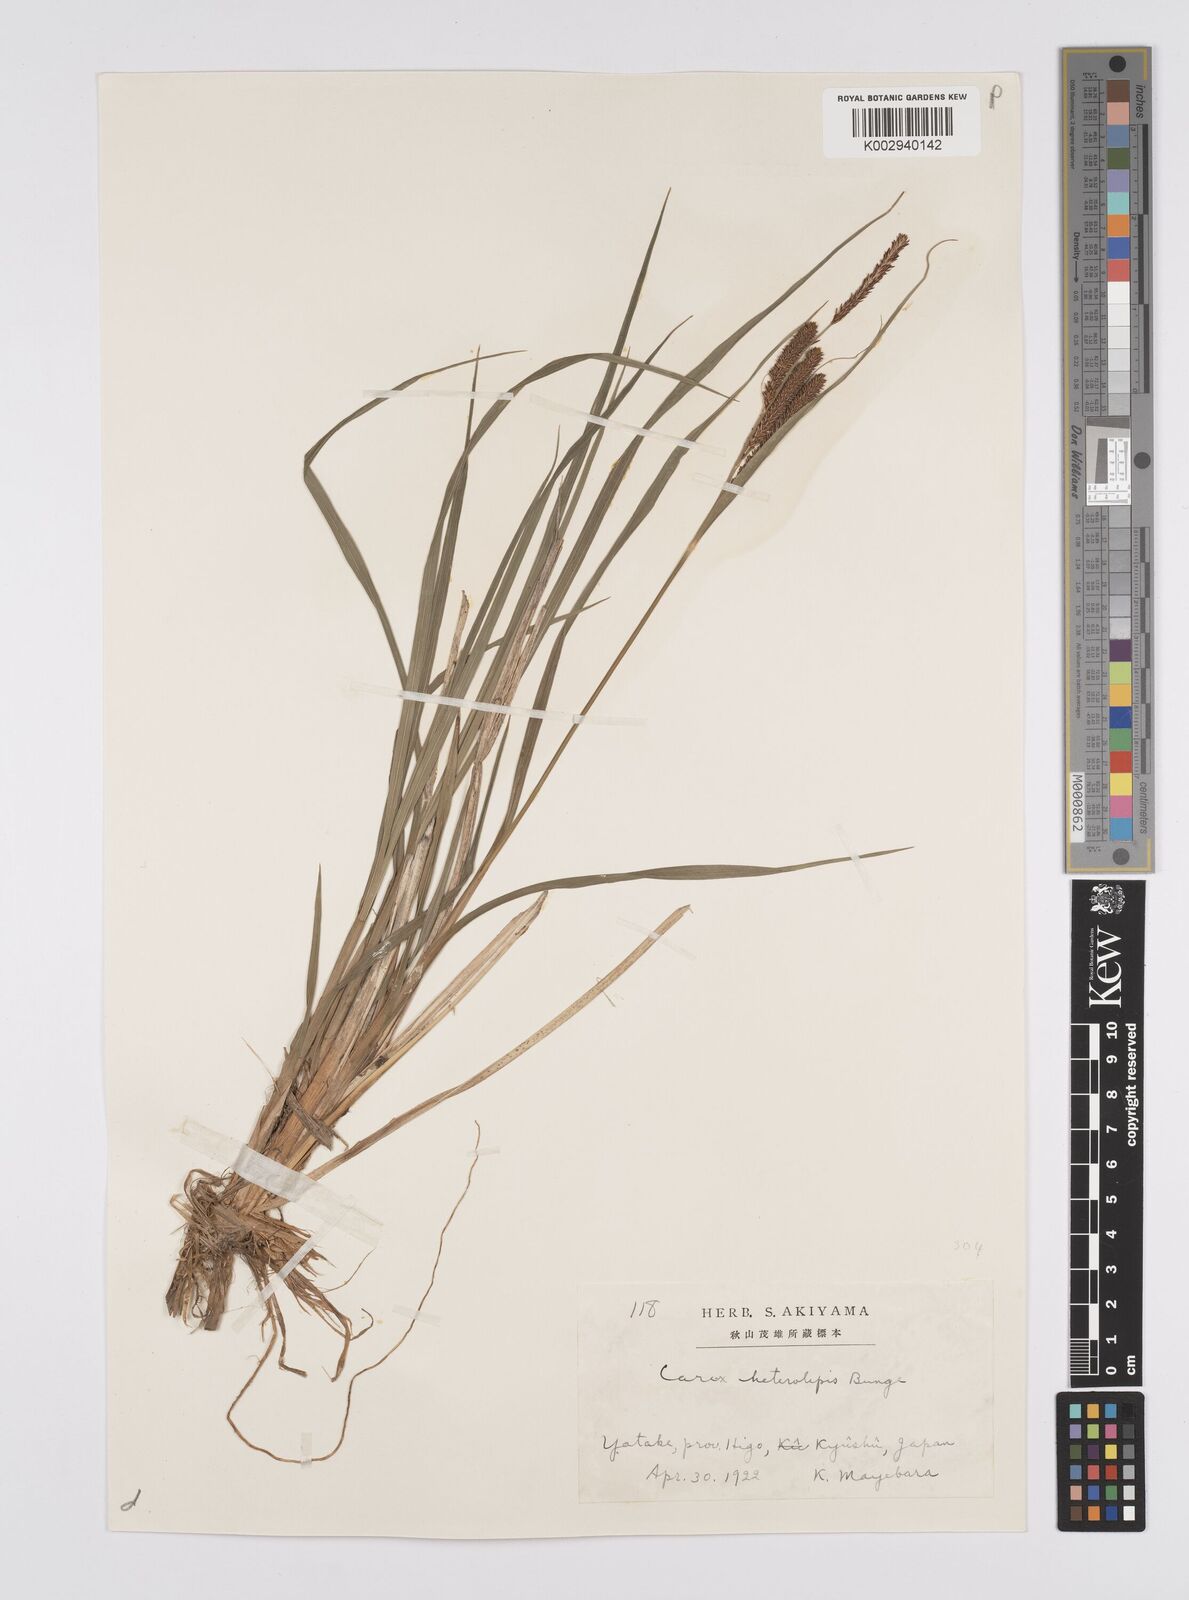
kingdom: Plantae
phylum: Tracheophyta
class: Liliopsida
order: Poales
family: Cyperaceae
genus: Carex
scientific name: Carex cruenta
